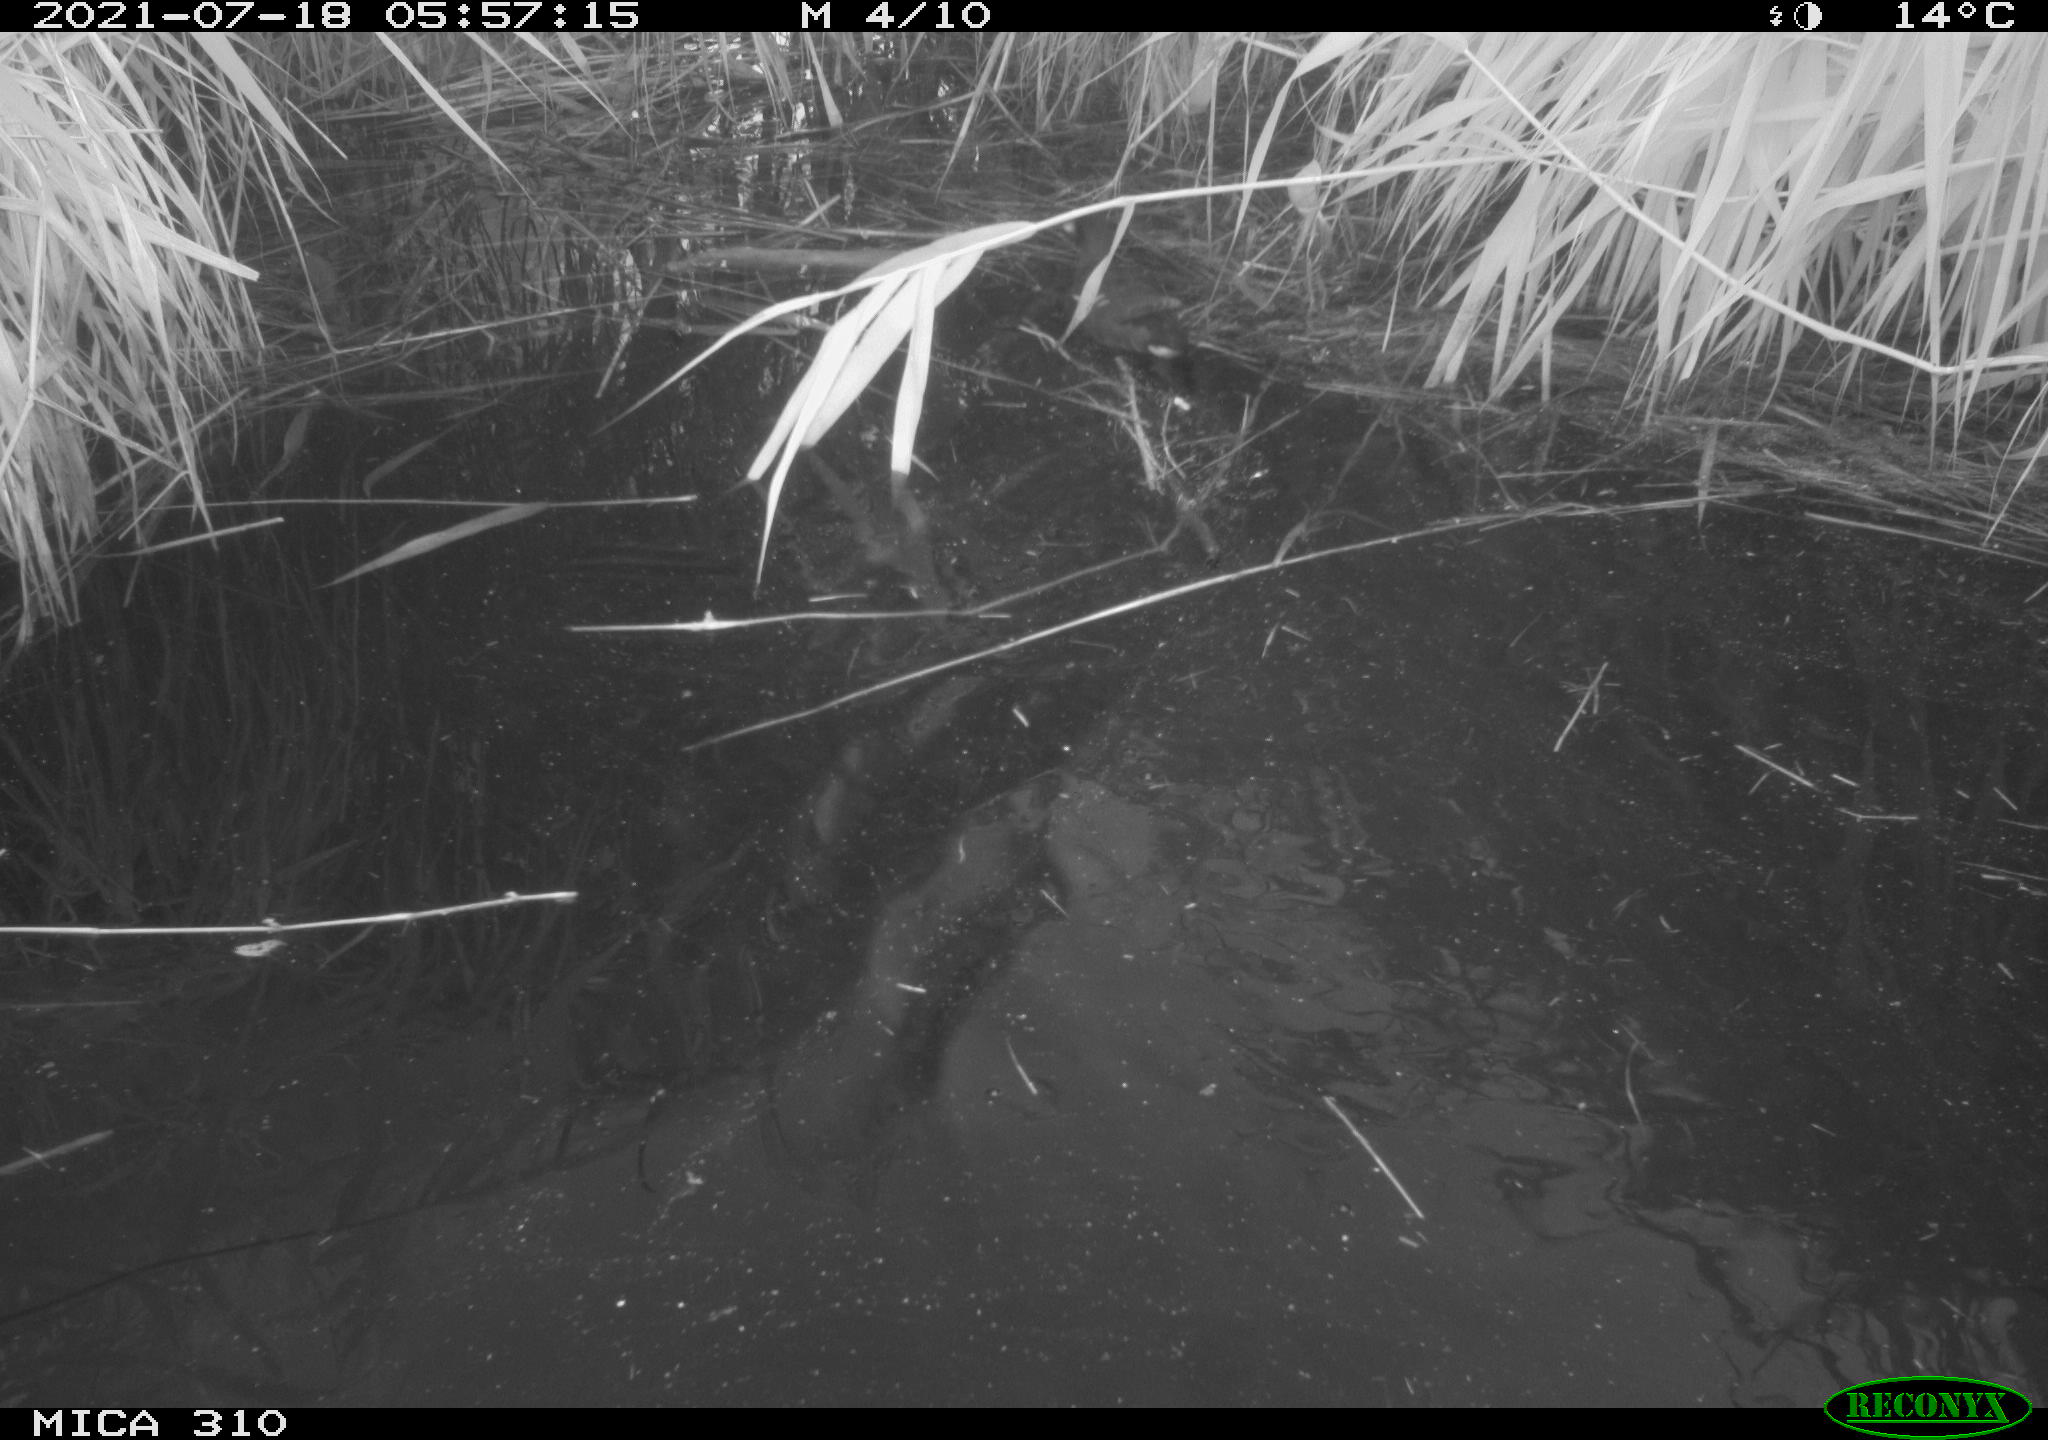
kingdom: Animalia
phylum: Chordata
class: Aves
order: Gruiformes
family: Rallidae
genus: Gallinula
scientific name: Gallinula chloropus
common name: Common moorhen
